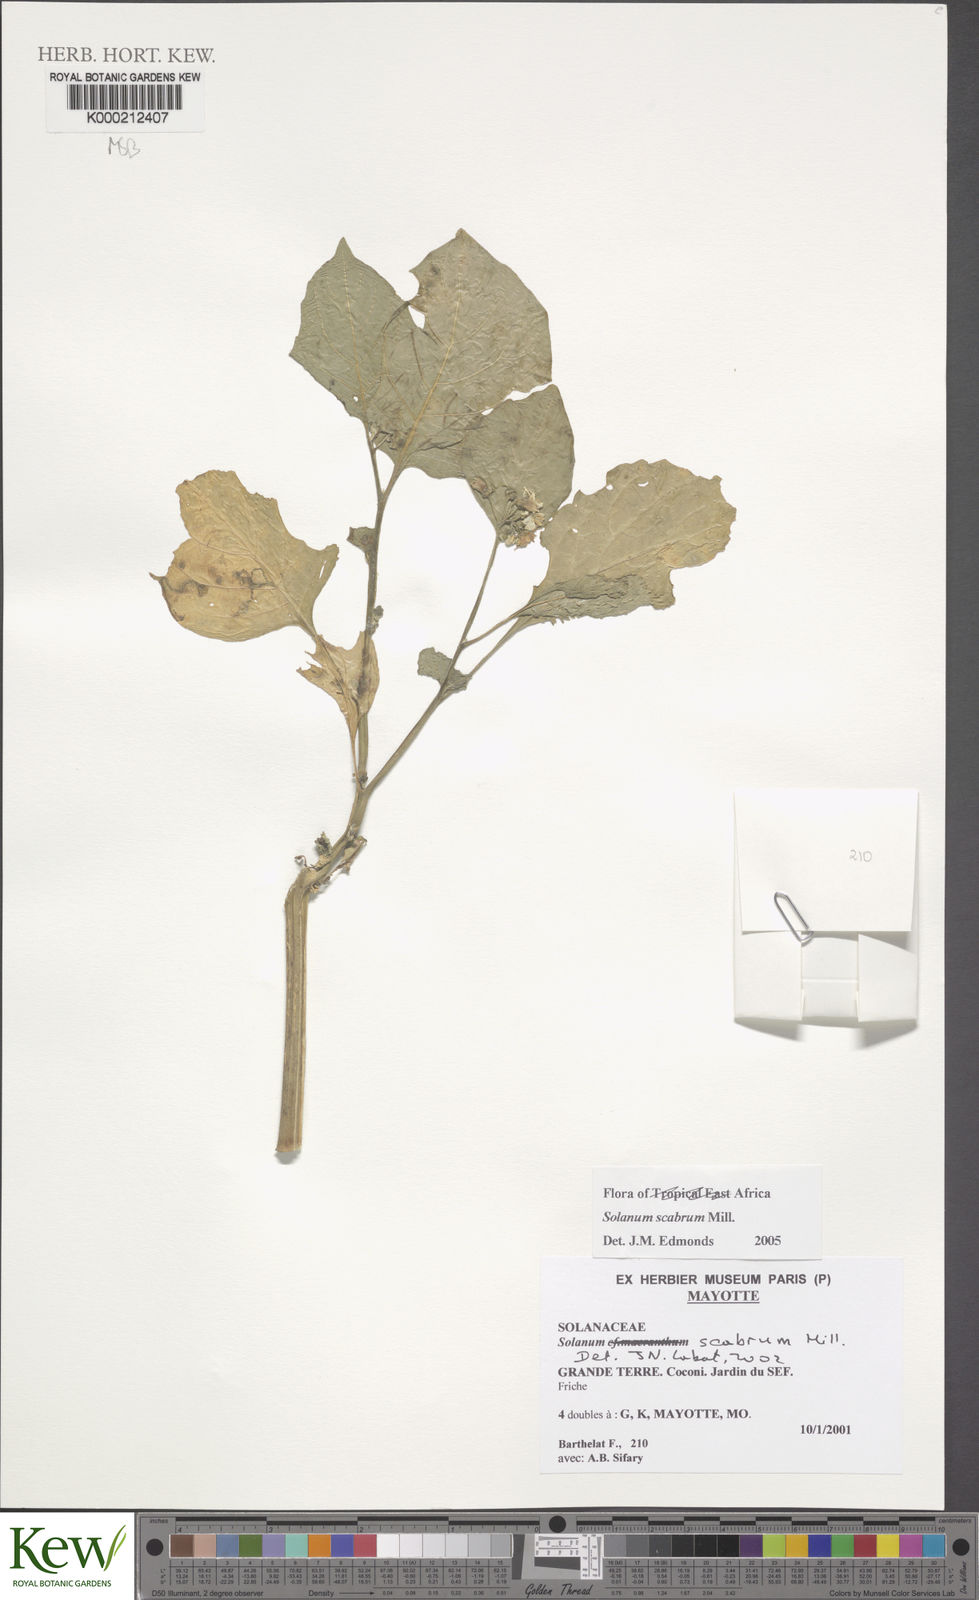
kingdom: Plantae
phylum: Tracheophyta
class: Magnoliopsida
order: Solanales
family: Solanaceae
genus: Solanum
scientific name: Solanum scabrum
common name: Garden-huckleberry
